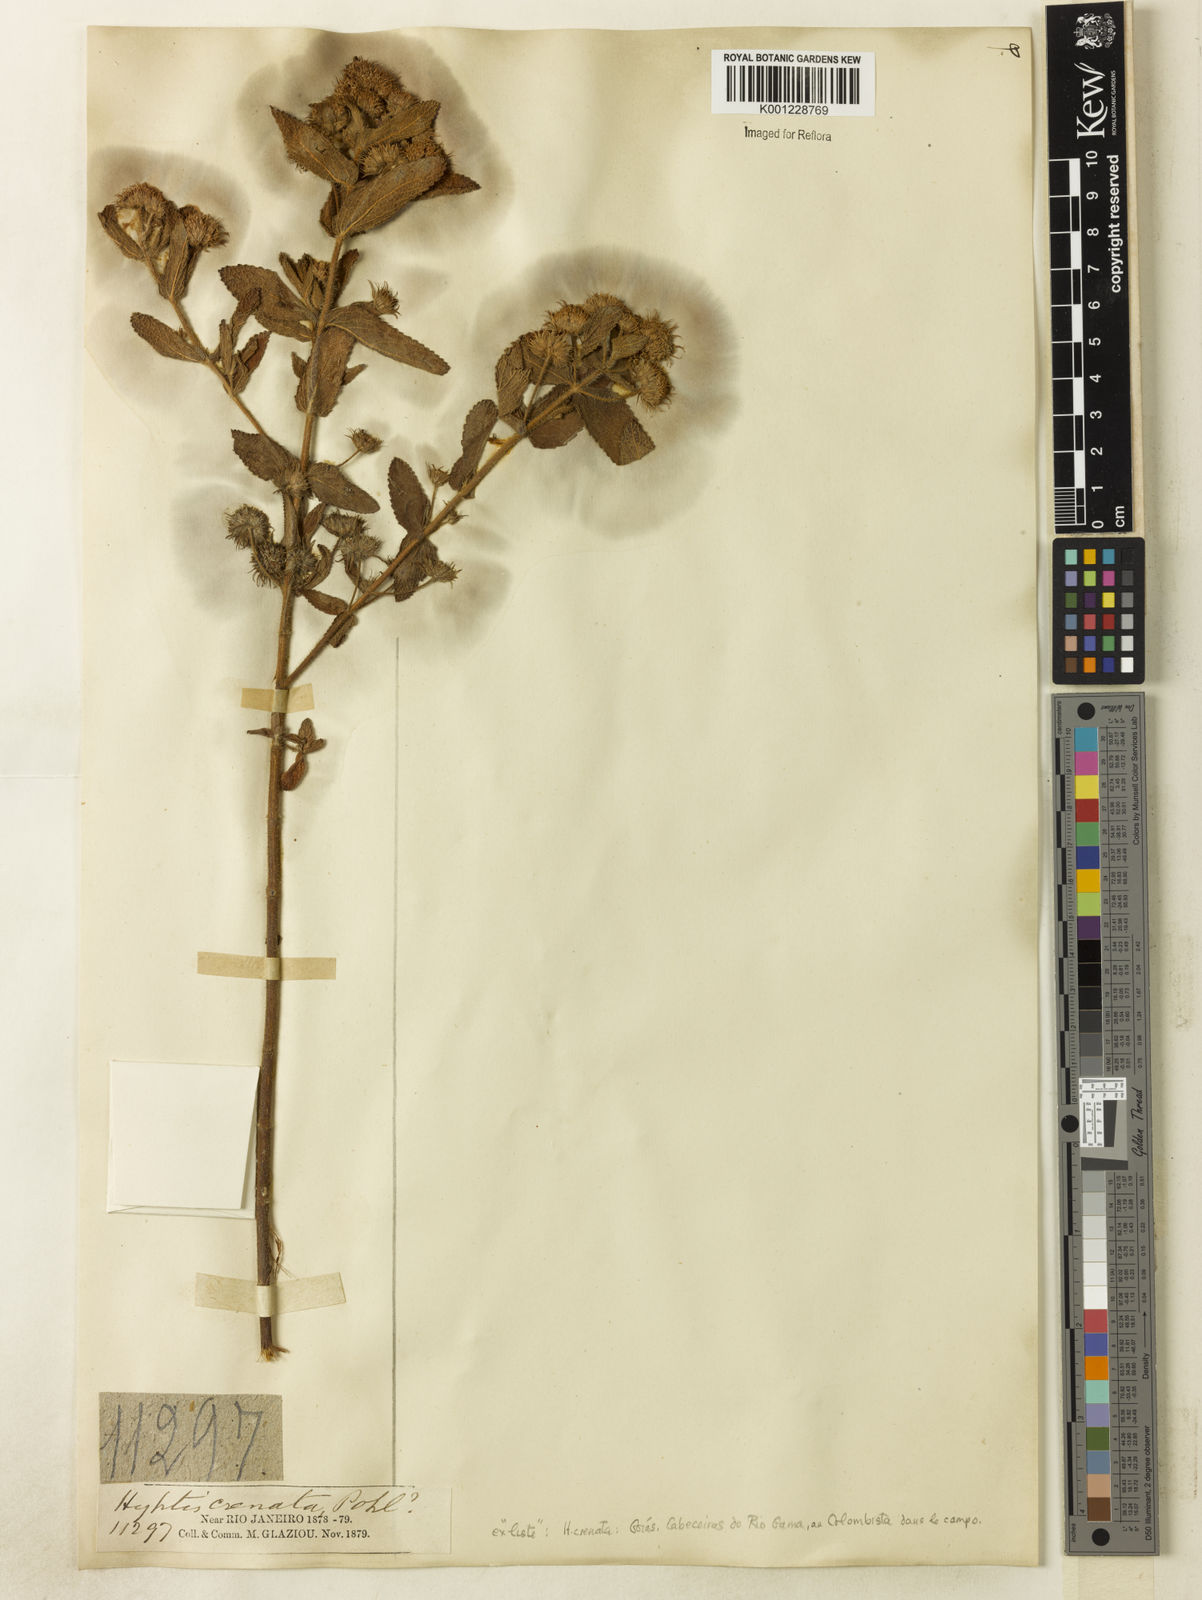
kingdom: Plantae
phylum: Tracheophyta
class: Magnoliopsida
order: Lamiales
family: Lamiaceae
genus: Hyptis
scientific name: Hyptis crenata
